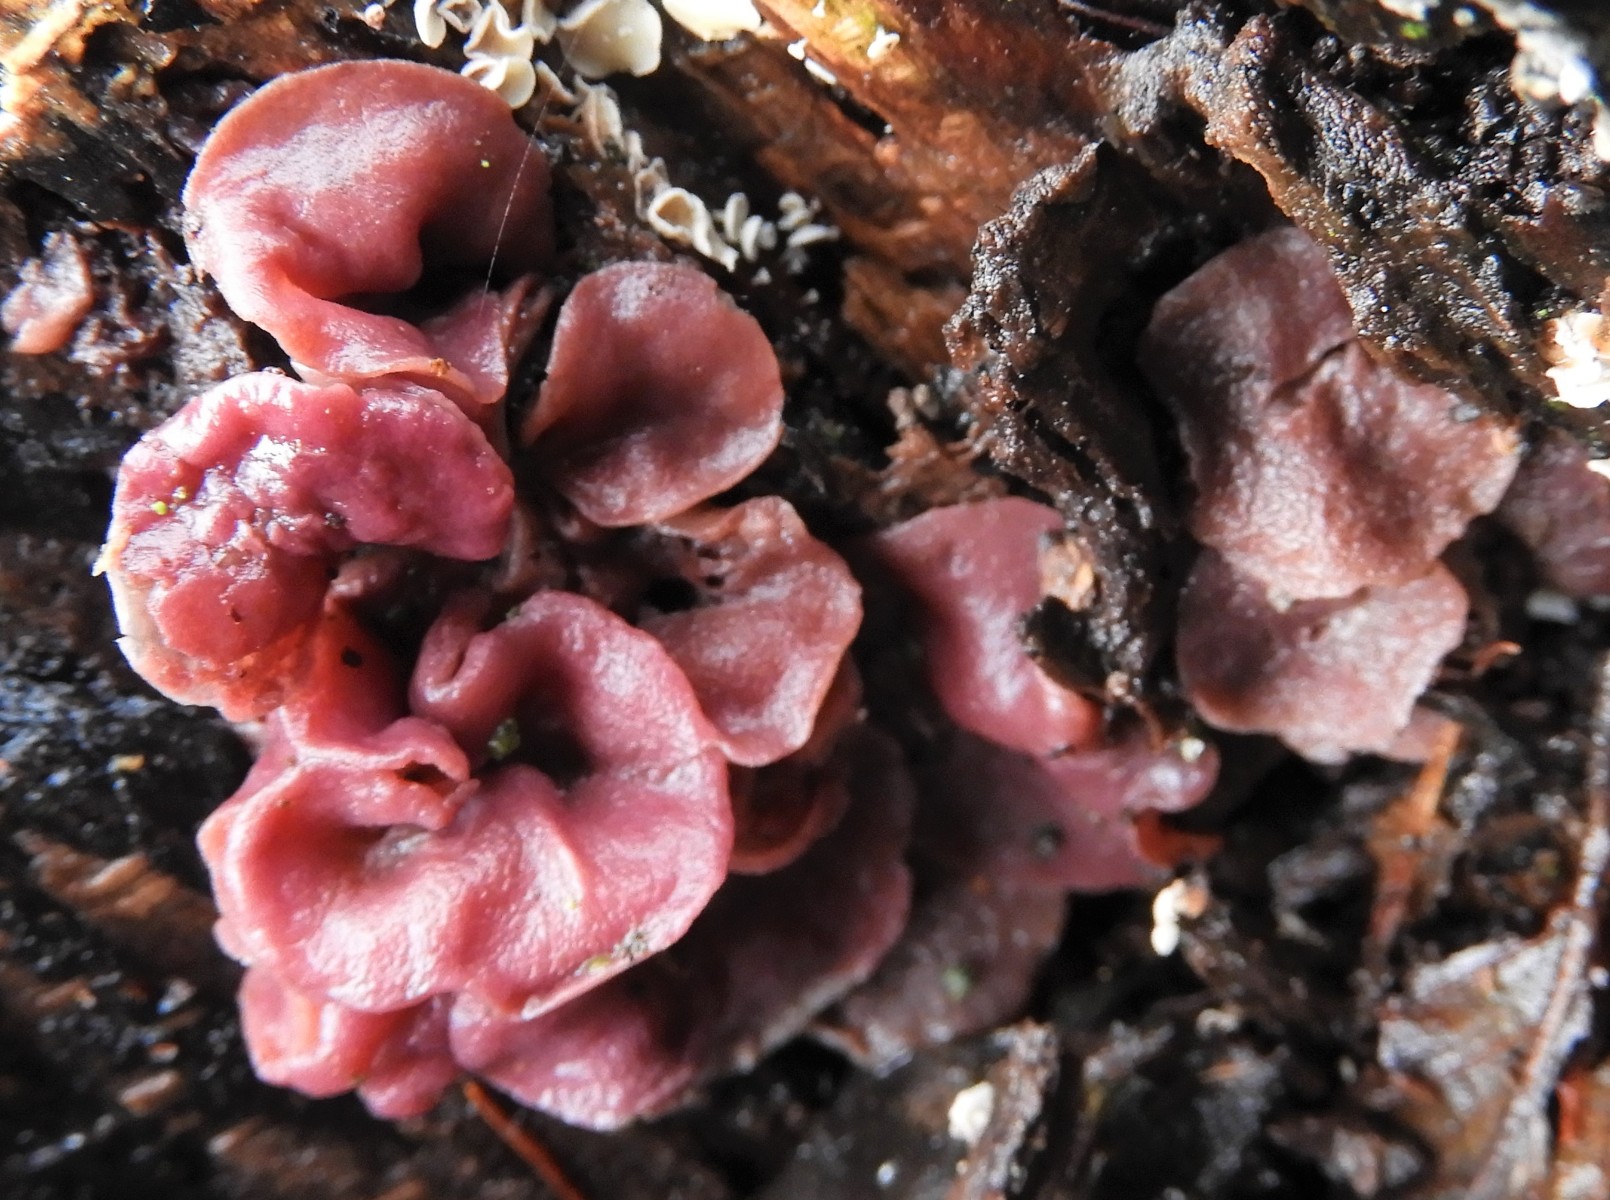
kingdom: Fungi
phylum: Ascomycota
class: Leotiomycetes
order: Helotiales
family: Gelatinodiscaceae
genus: Ascocoryne
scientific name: Ascocoryne cylichnium
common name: stor sejskive
